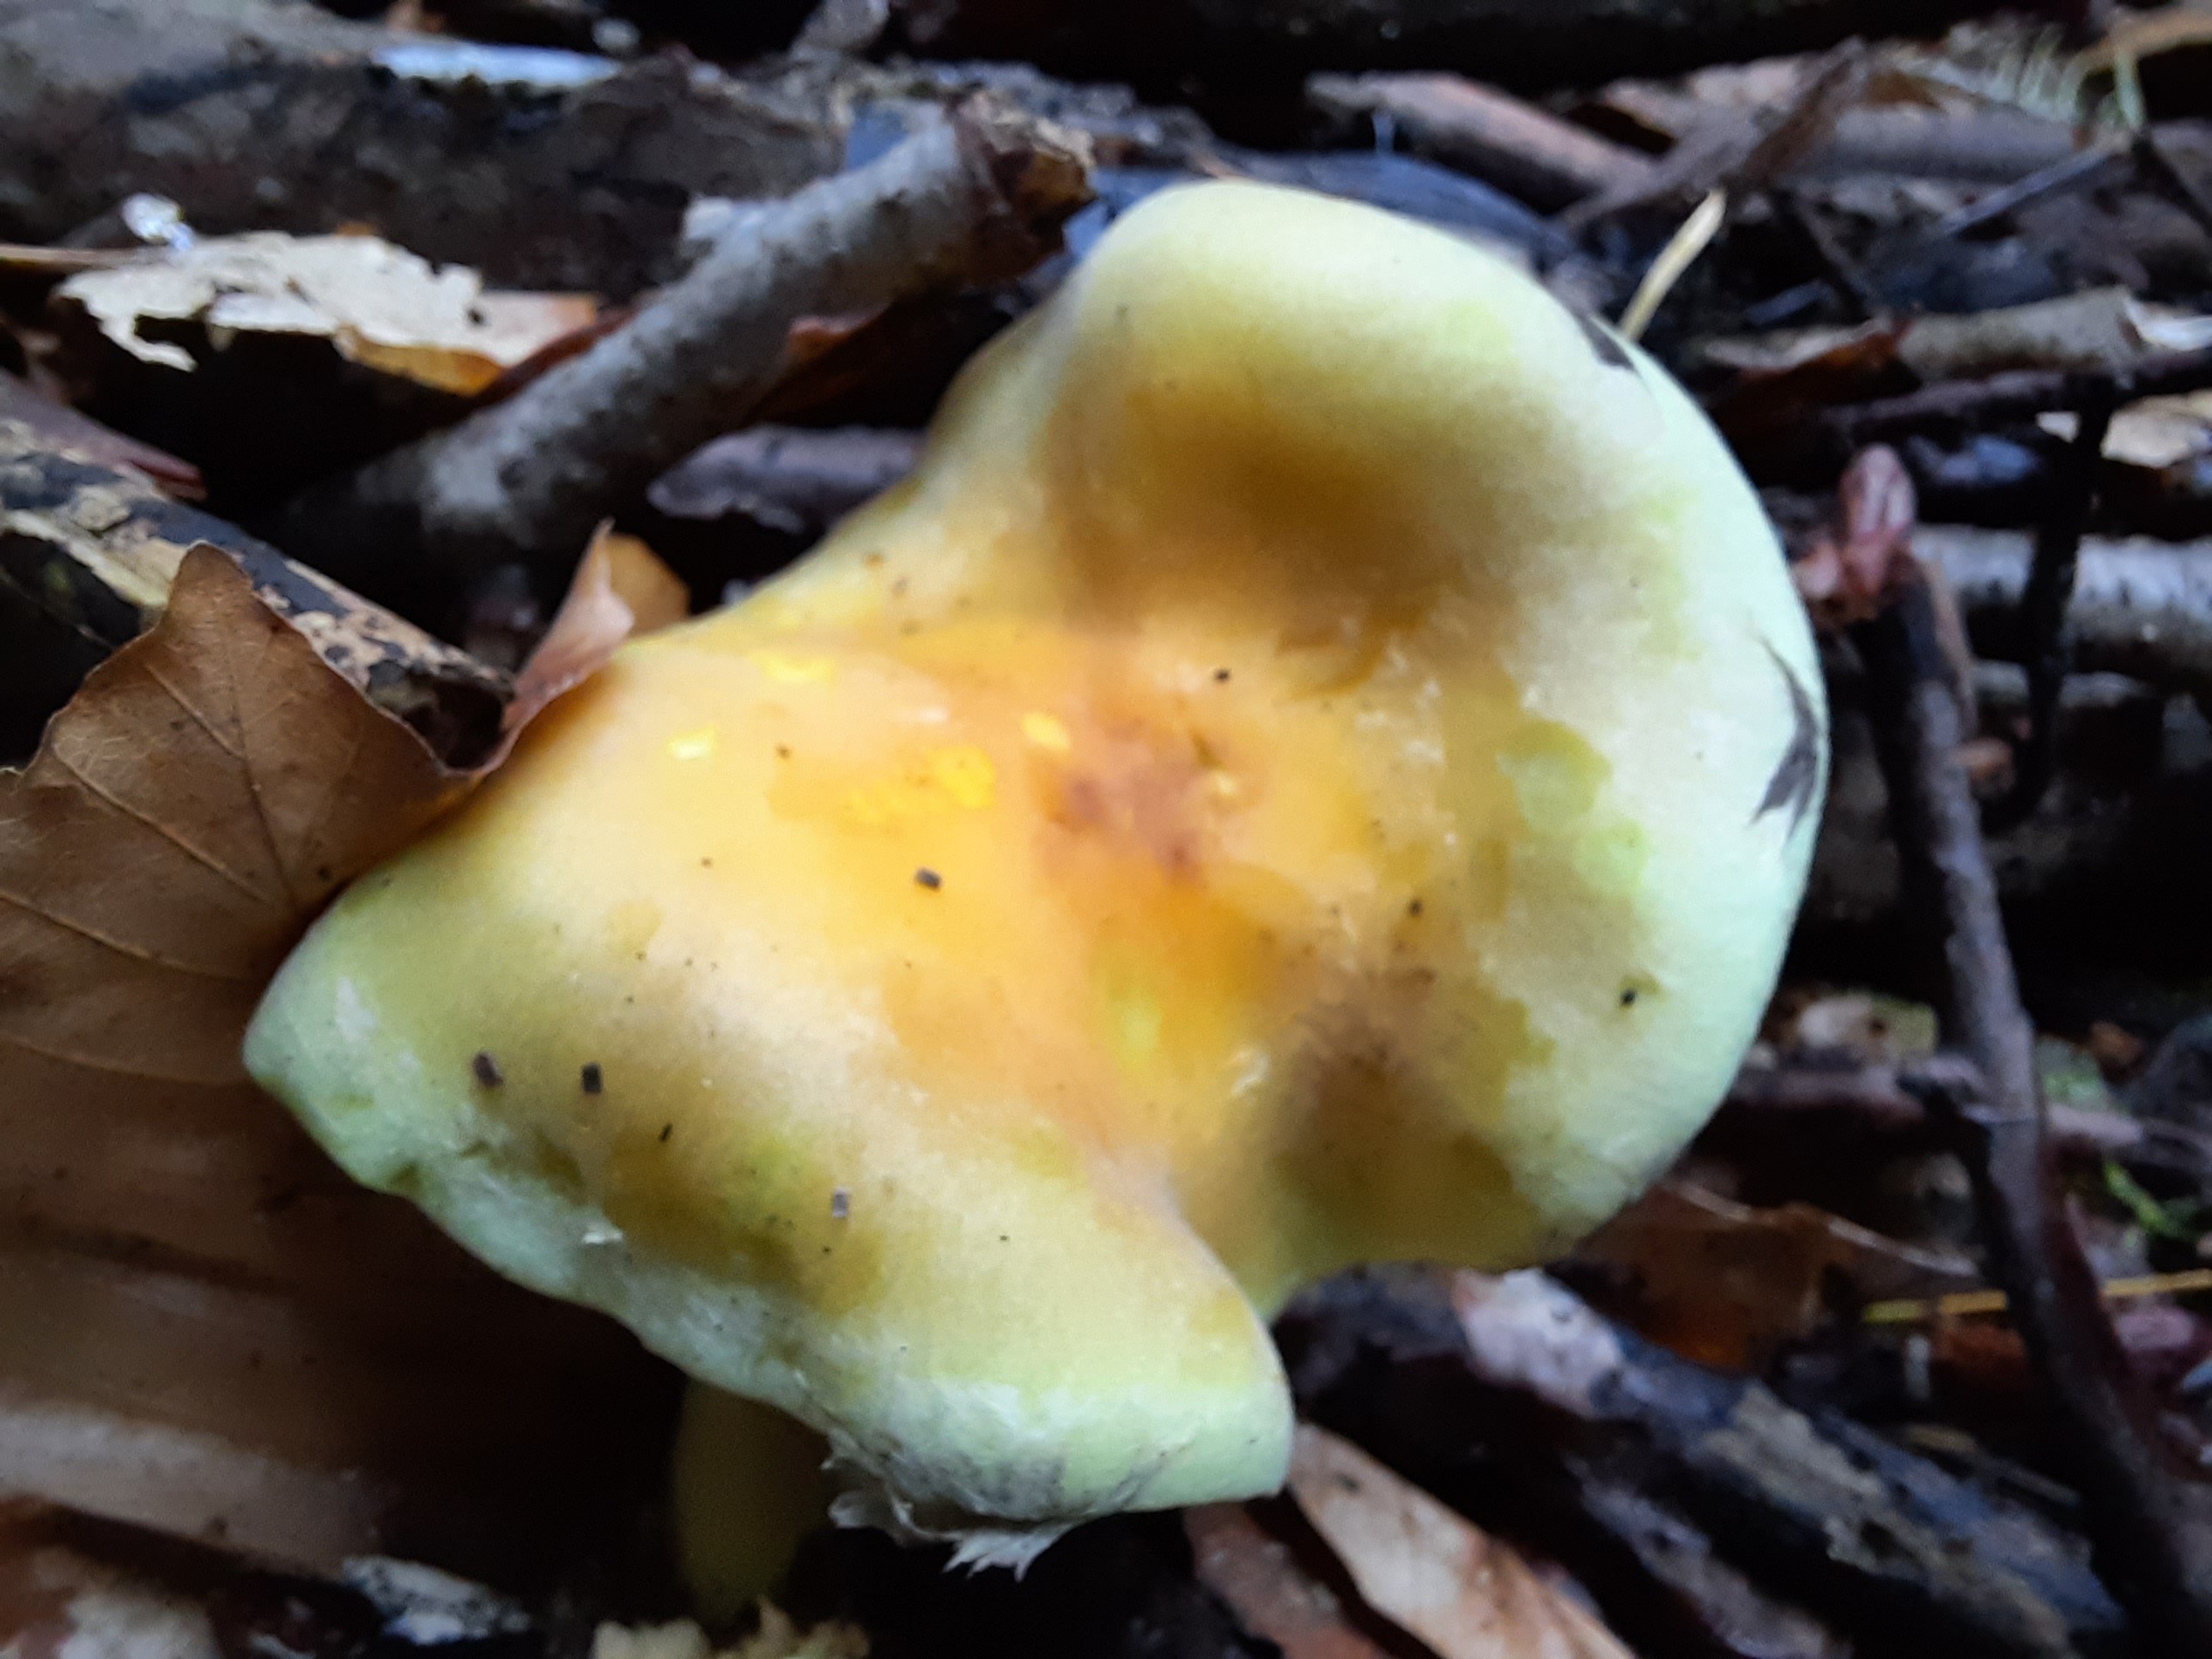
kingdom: Fungi
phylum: Basidiomycota
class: Agaricomycetes
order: Agaricales
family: Strophariaceae
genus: Hypholoma
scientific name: Hypholoma fasciculare
